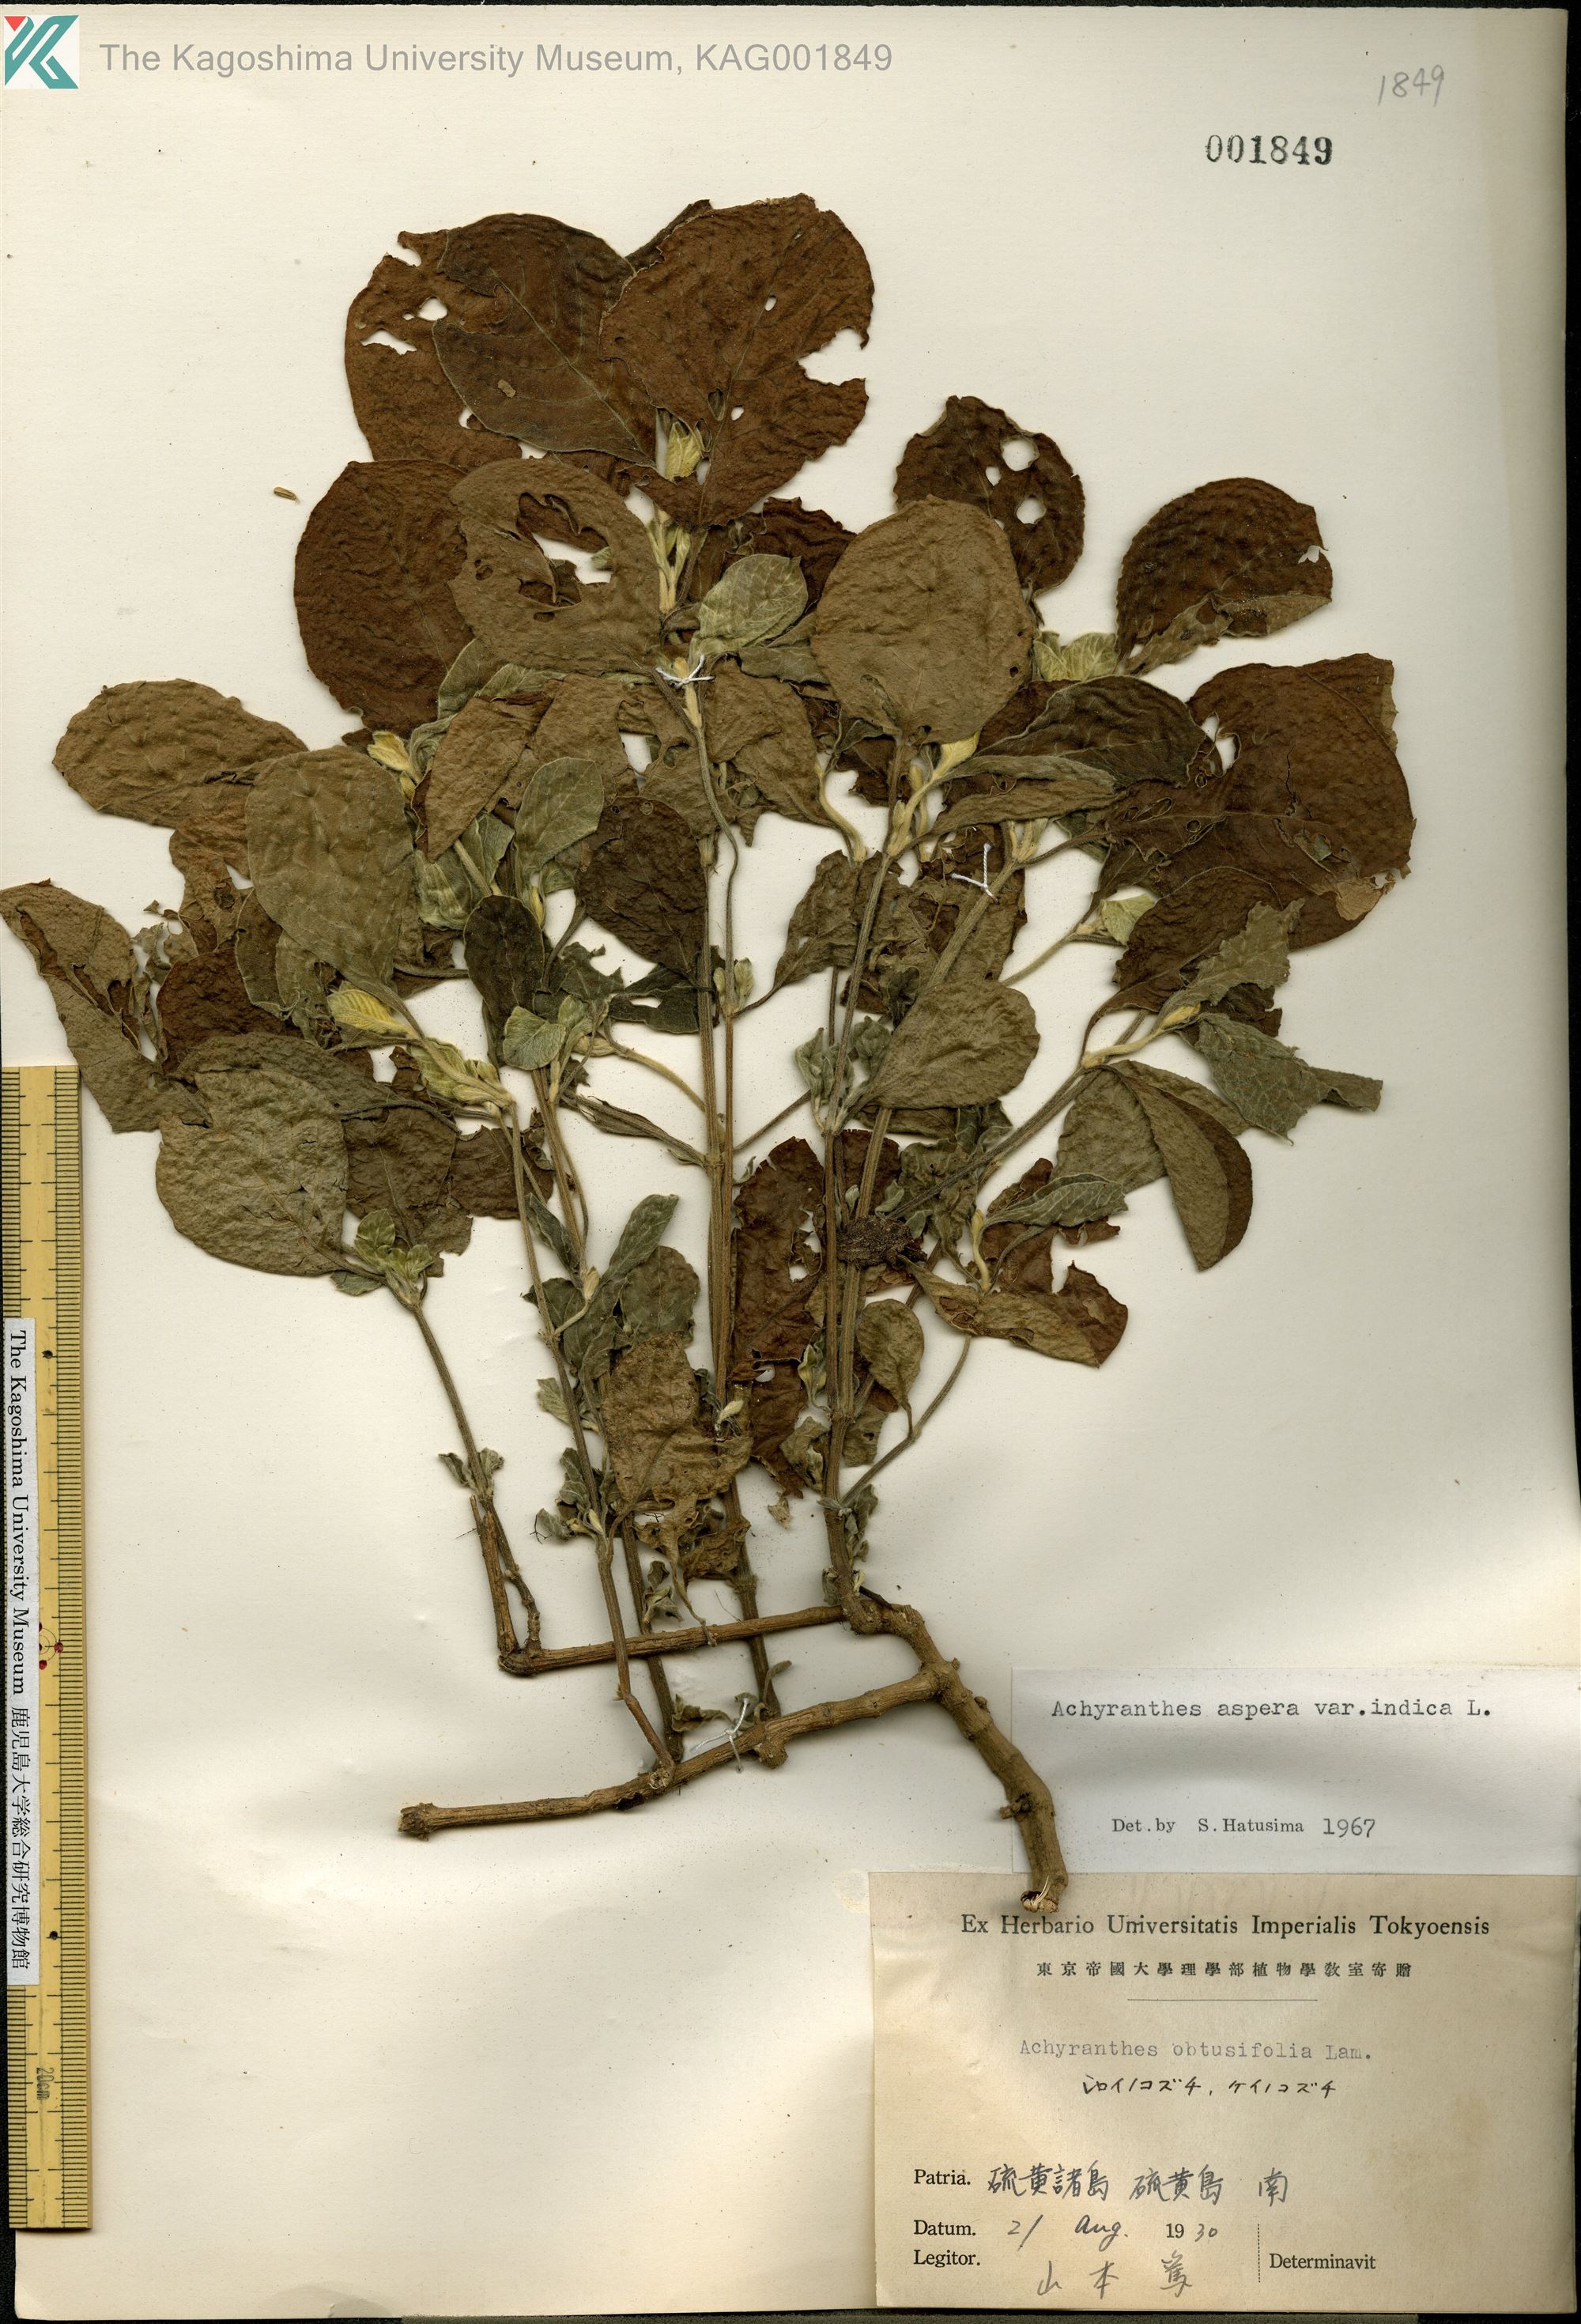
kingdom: Plantae
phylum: Tracheophyta
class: Magnoliopsida
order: Caryophyllales
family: Amaranthaceae
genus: Achyranthes
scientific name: Achyranthes aspera
